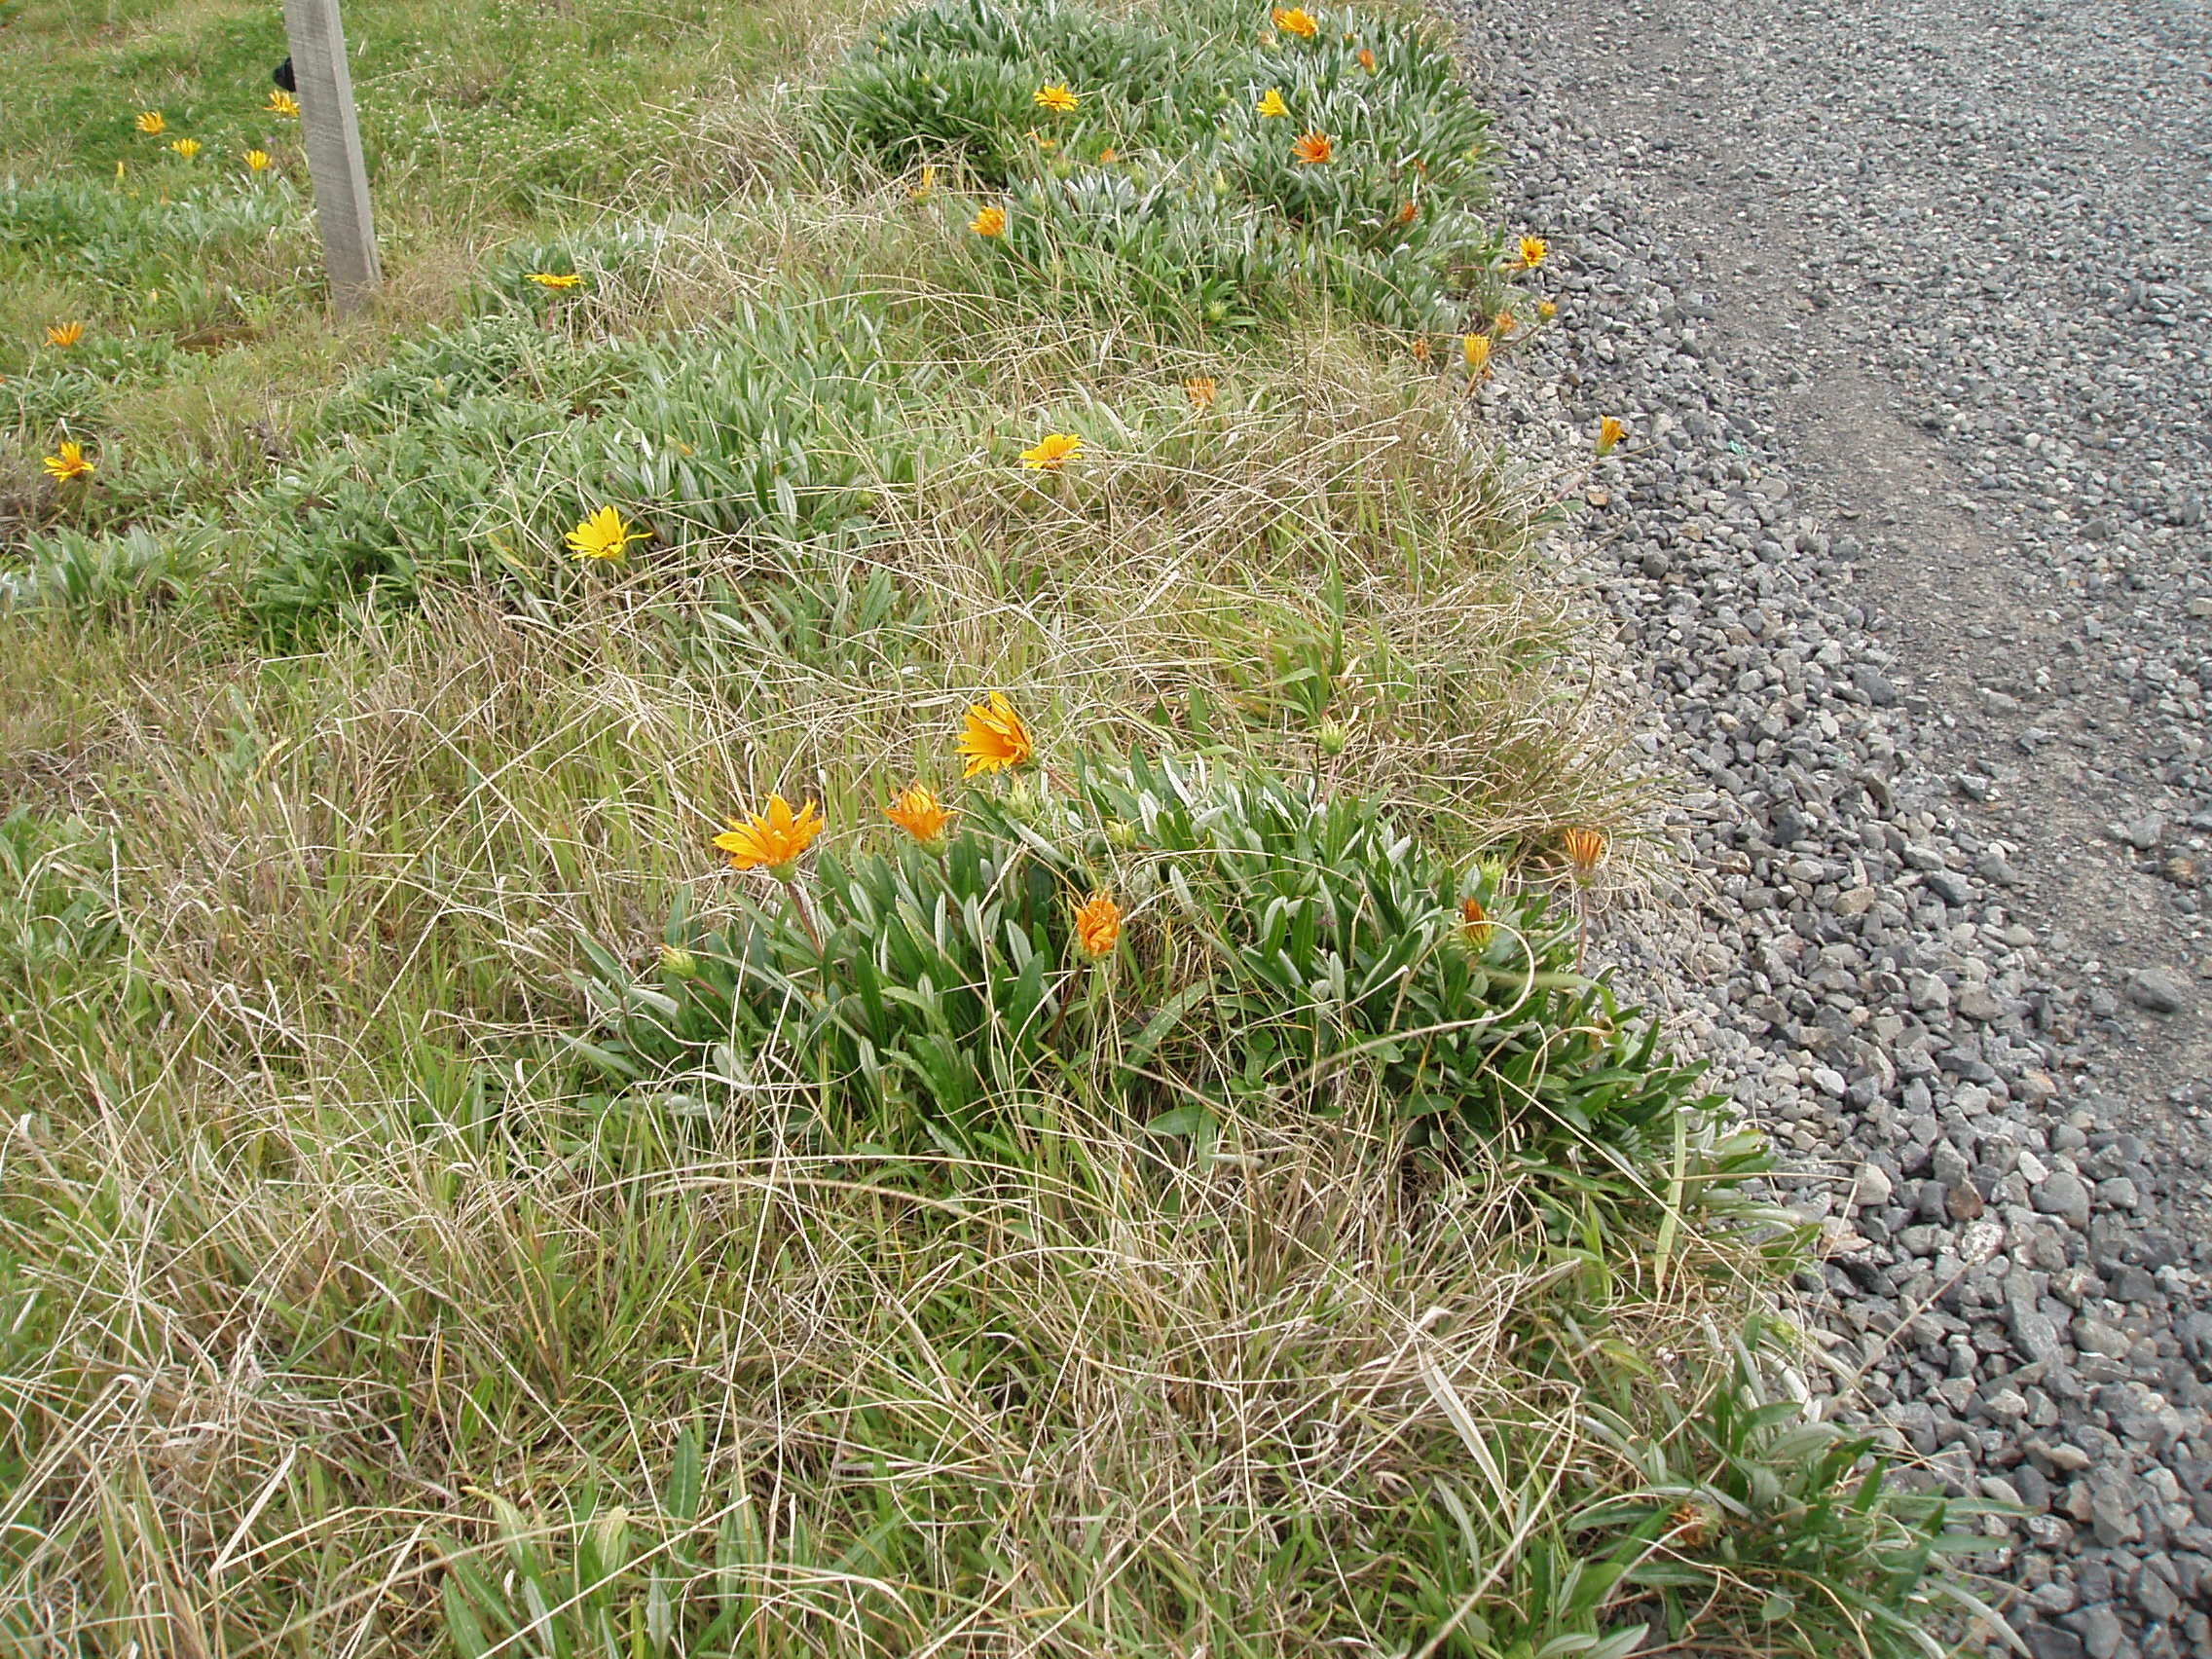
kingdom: Plantae
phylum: Tracheophyta
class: Magnoliopsida
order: Asterales
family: Asteraceae
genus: Gazania
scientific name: Gazania linearis
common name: Treasureflower
